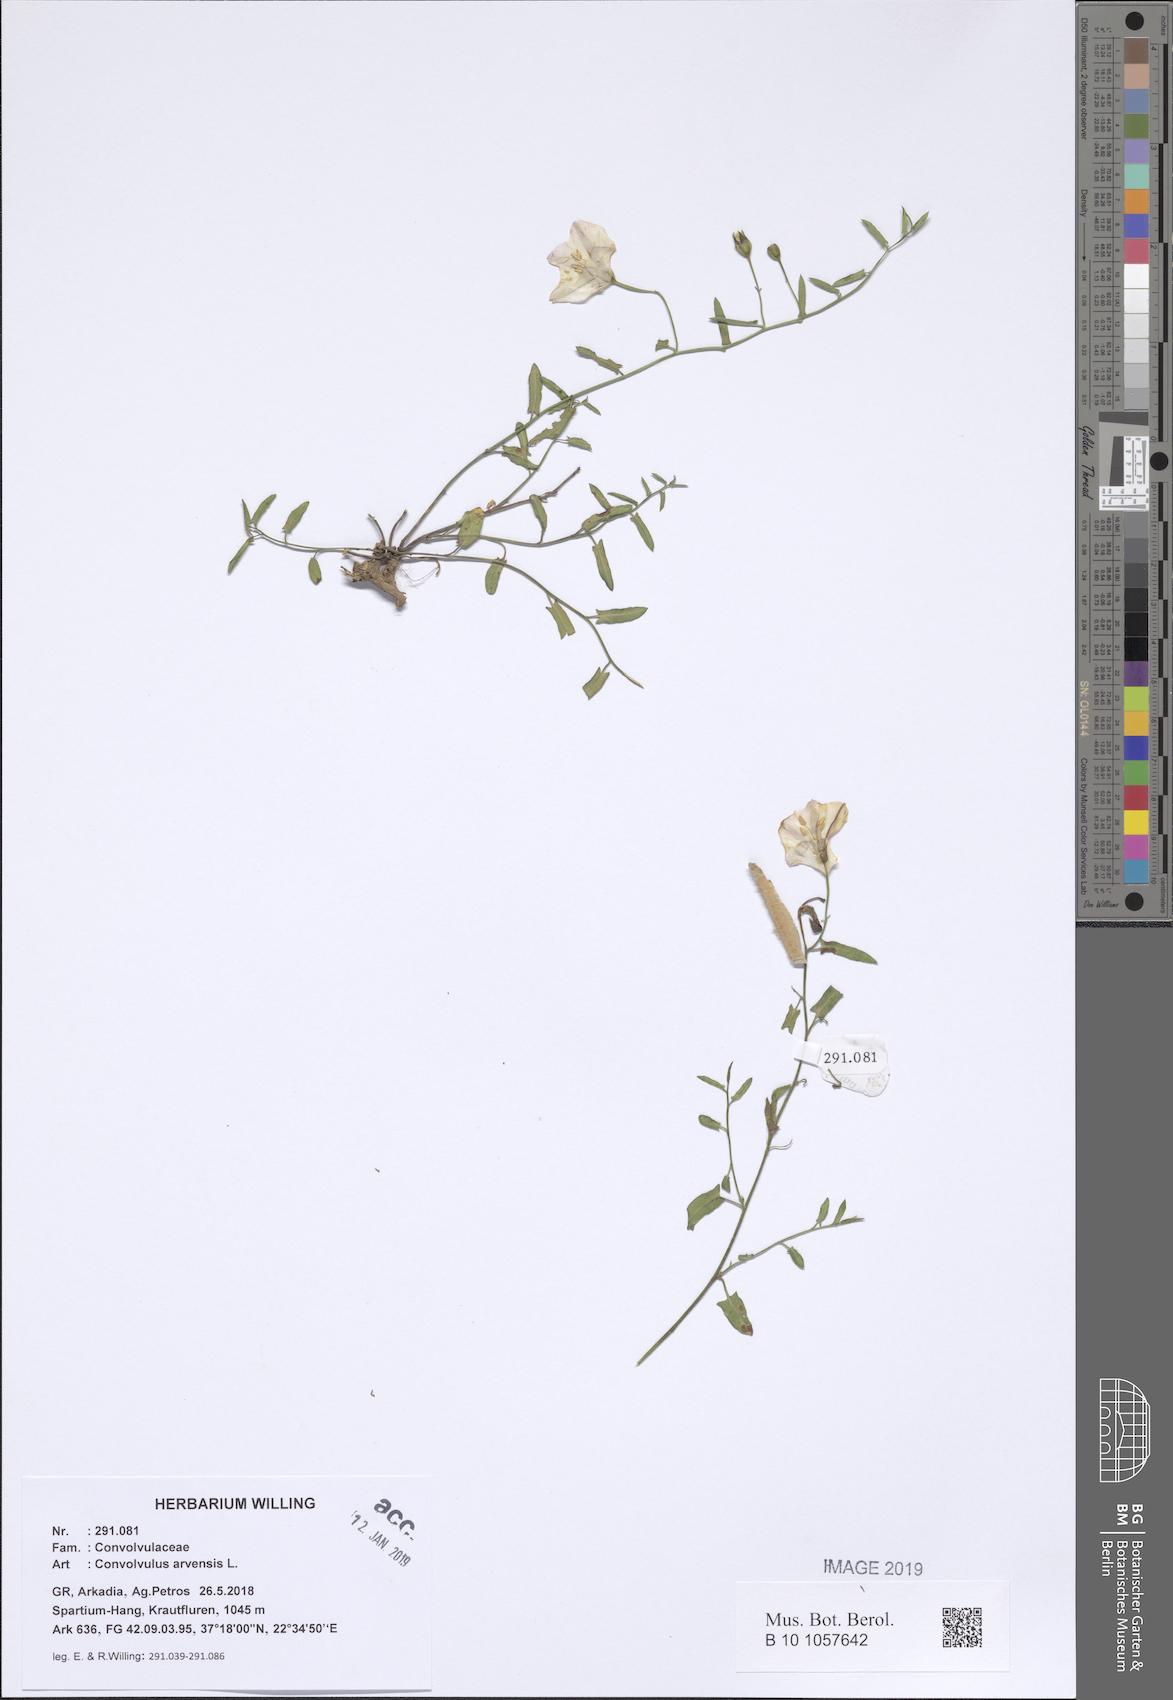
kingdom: Plantae
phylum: Tracheophyta
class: Magnoliopsida
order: Solanales
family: Convolvulaceae
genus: Convolvulus
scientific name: Convolvulus arvensis
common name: Field bindweed
